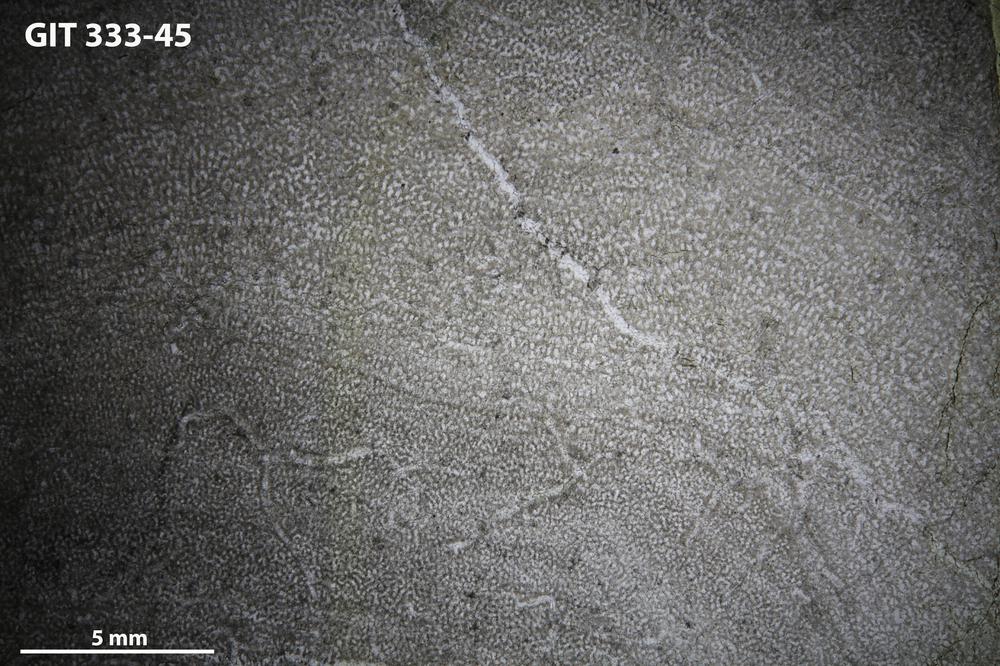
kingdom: Animalia
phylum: Porifera
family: Pseudolabechiidae
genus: Vikingia
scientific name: Vikingia
